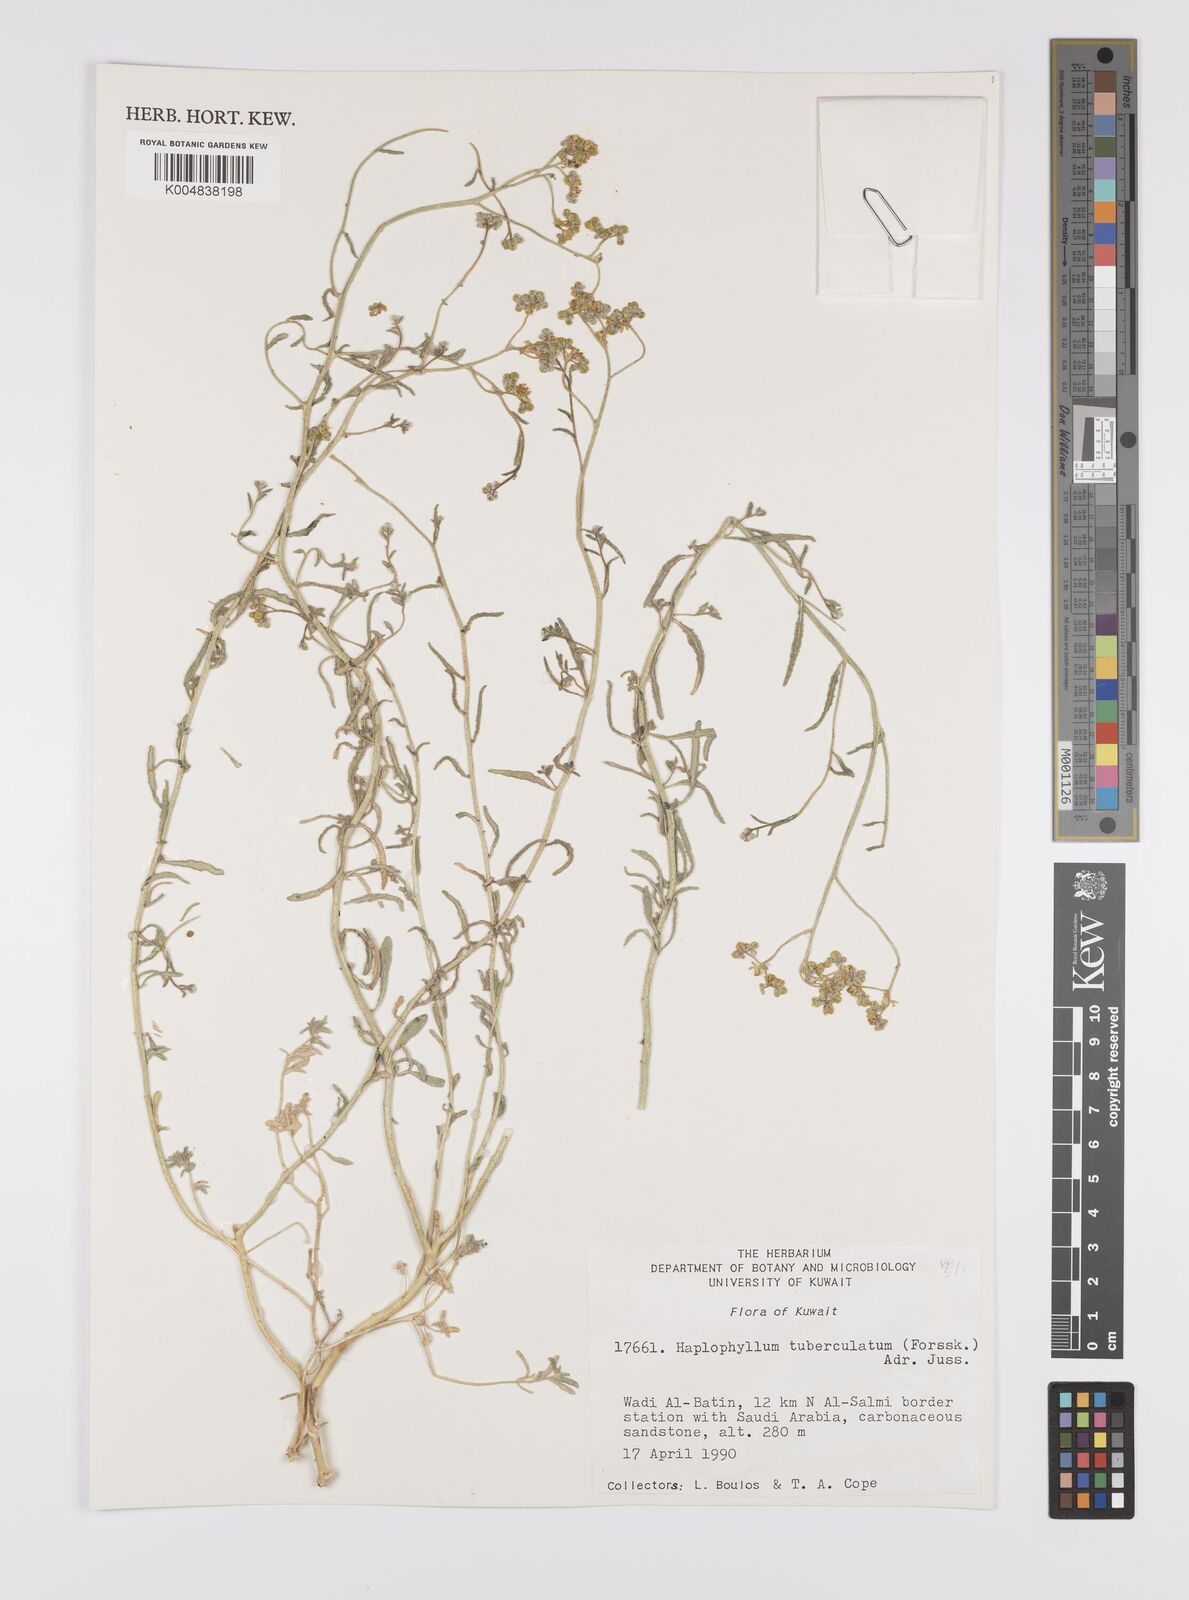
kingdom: Plantae
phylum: Tracheophyta
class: Magnoliopsida
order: Sapindales
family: Rutaceae
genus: Haplophyllum
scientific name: Haplophyllum tuberculatum
